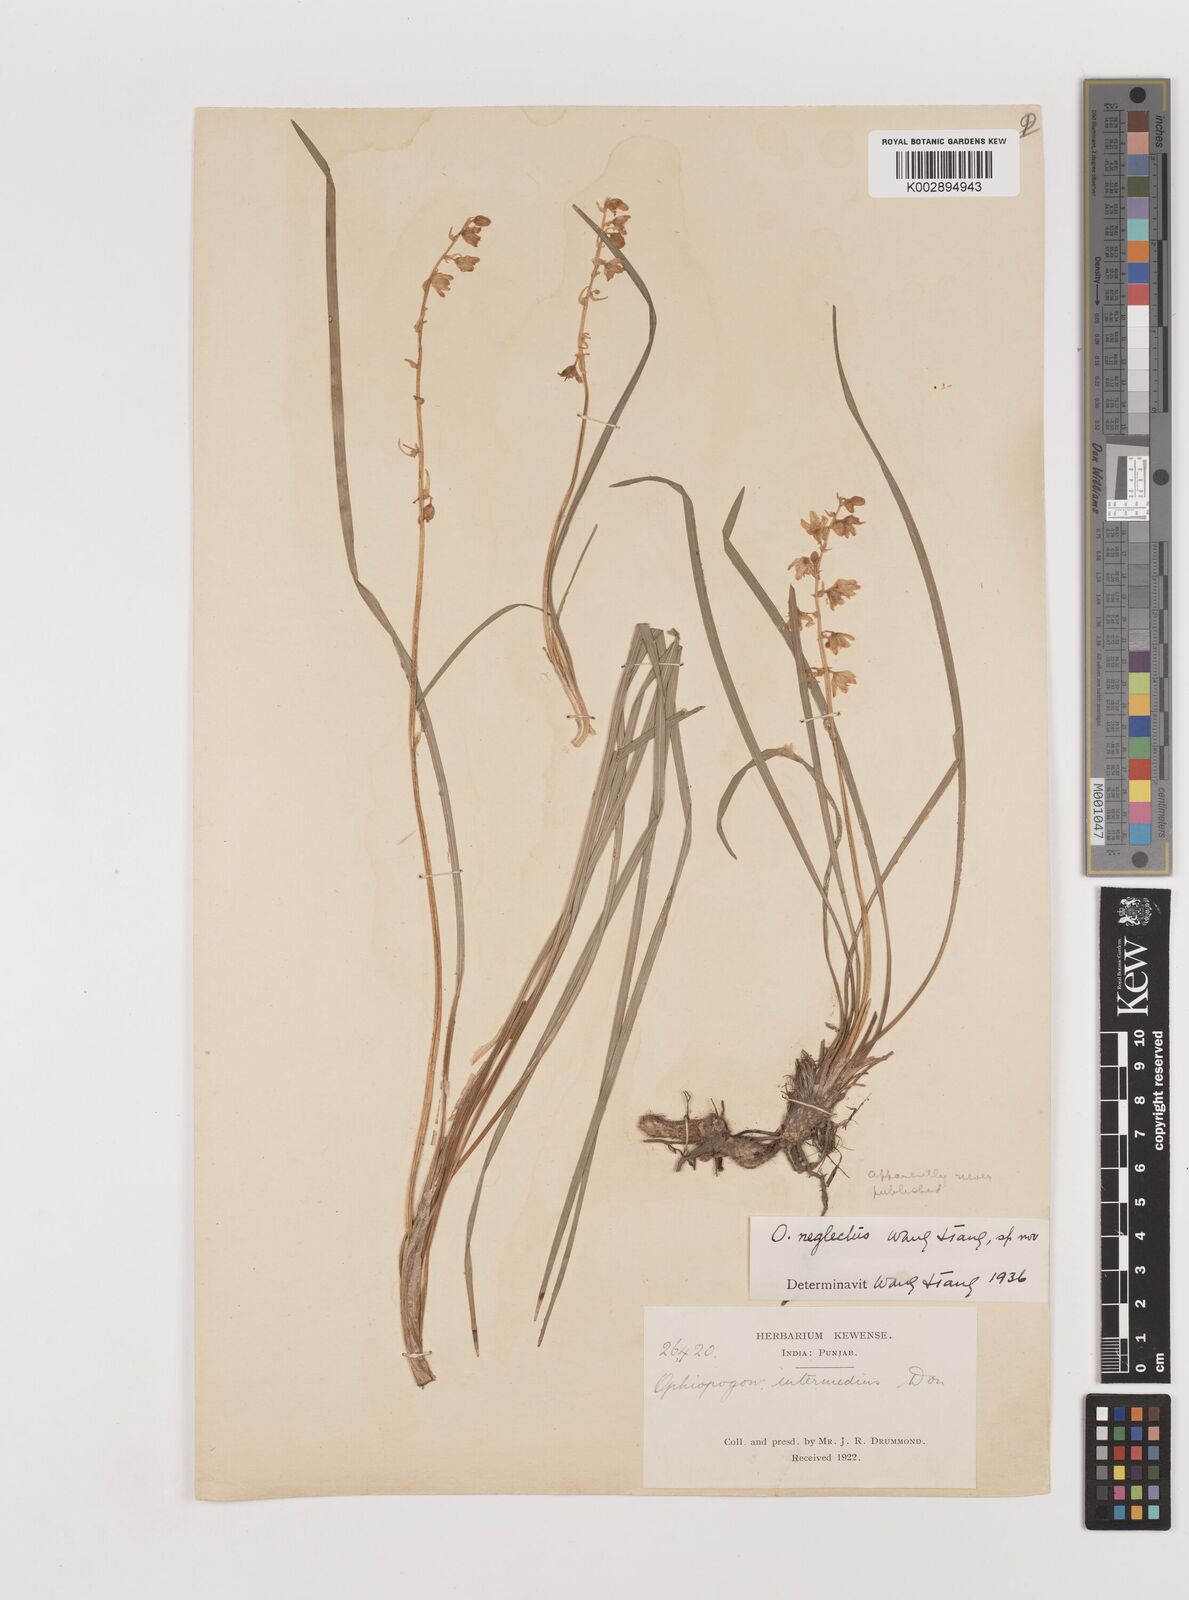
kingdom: Plantae
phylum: Tracheophyta
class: Liliopsida
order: Asparagales
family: Asparagaceae
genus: Ophiopogon
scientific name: Ophiopogon intermedius
